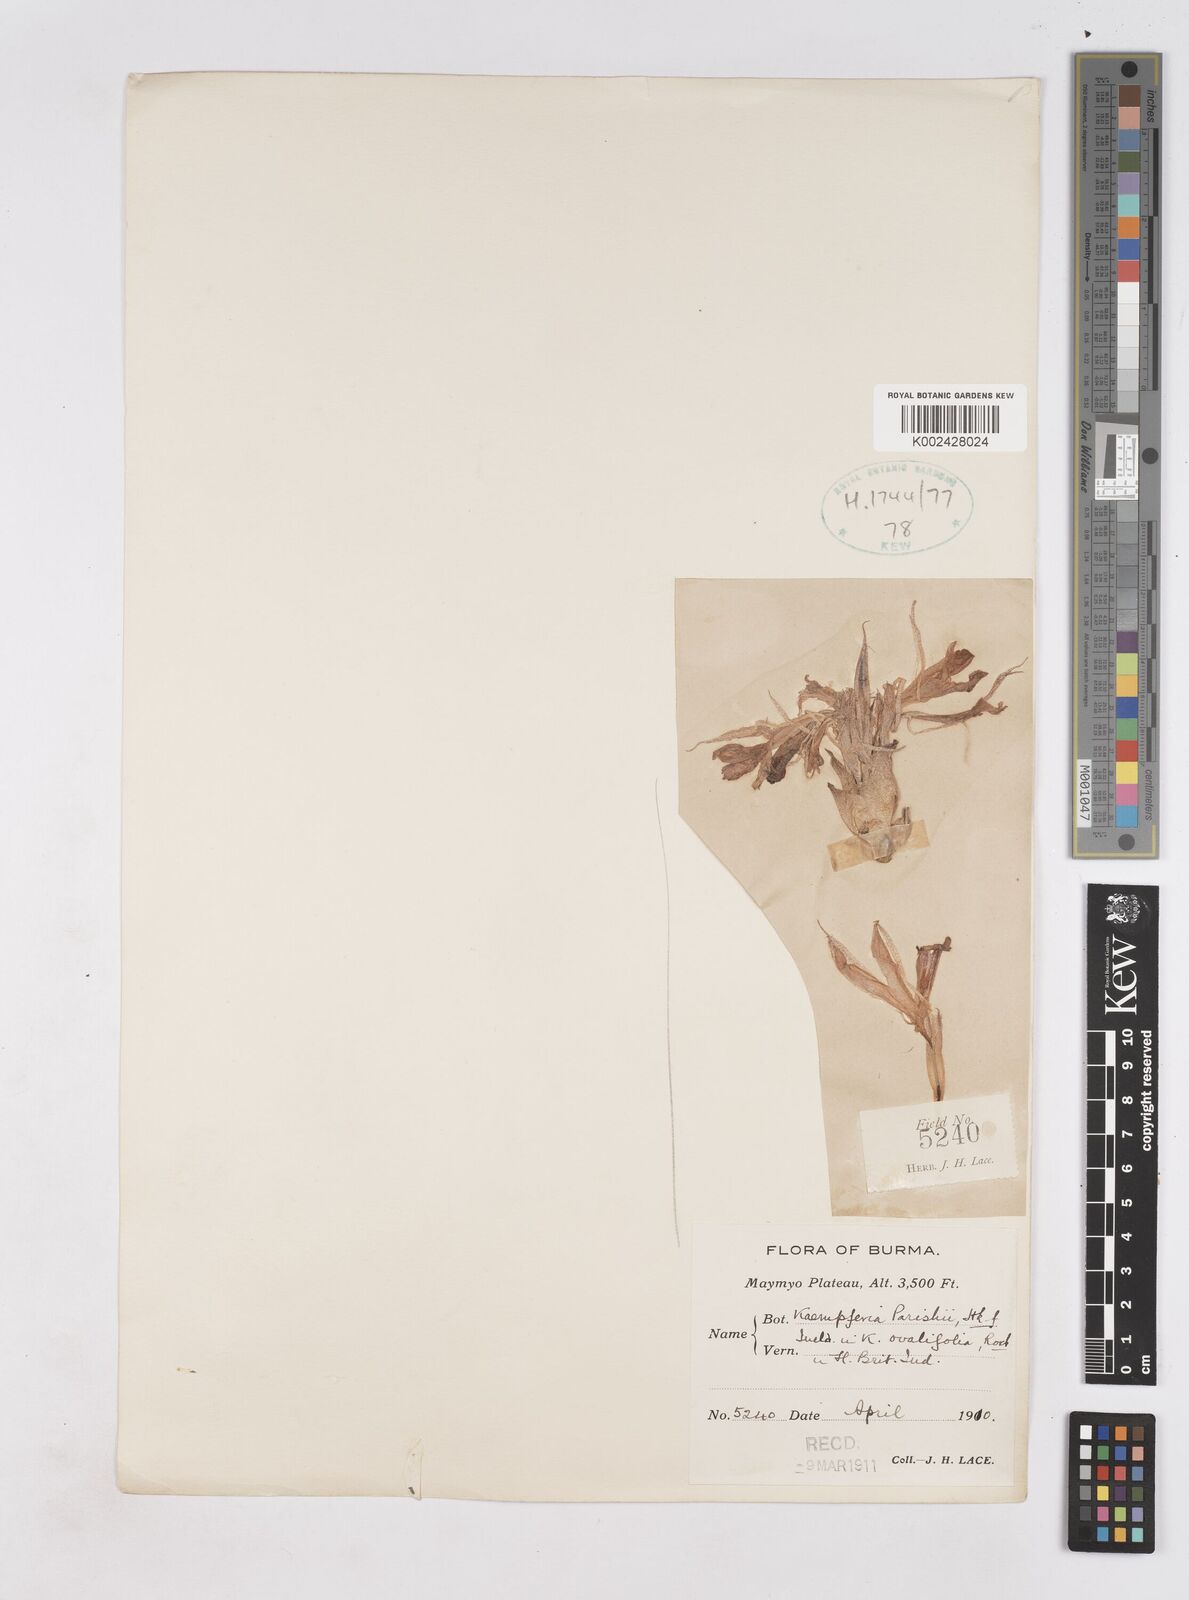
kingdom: Plantae
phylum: Tracheophyta
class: Liliopsida
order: Zingiberales
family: Zingiberaceae
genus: Kaempferia
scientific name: Kaempferia ovalifolia
